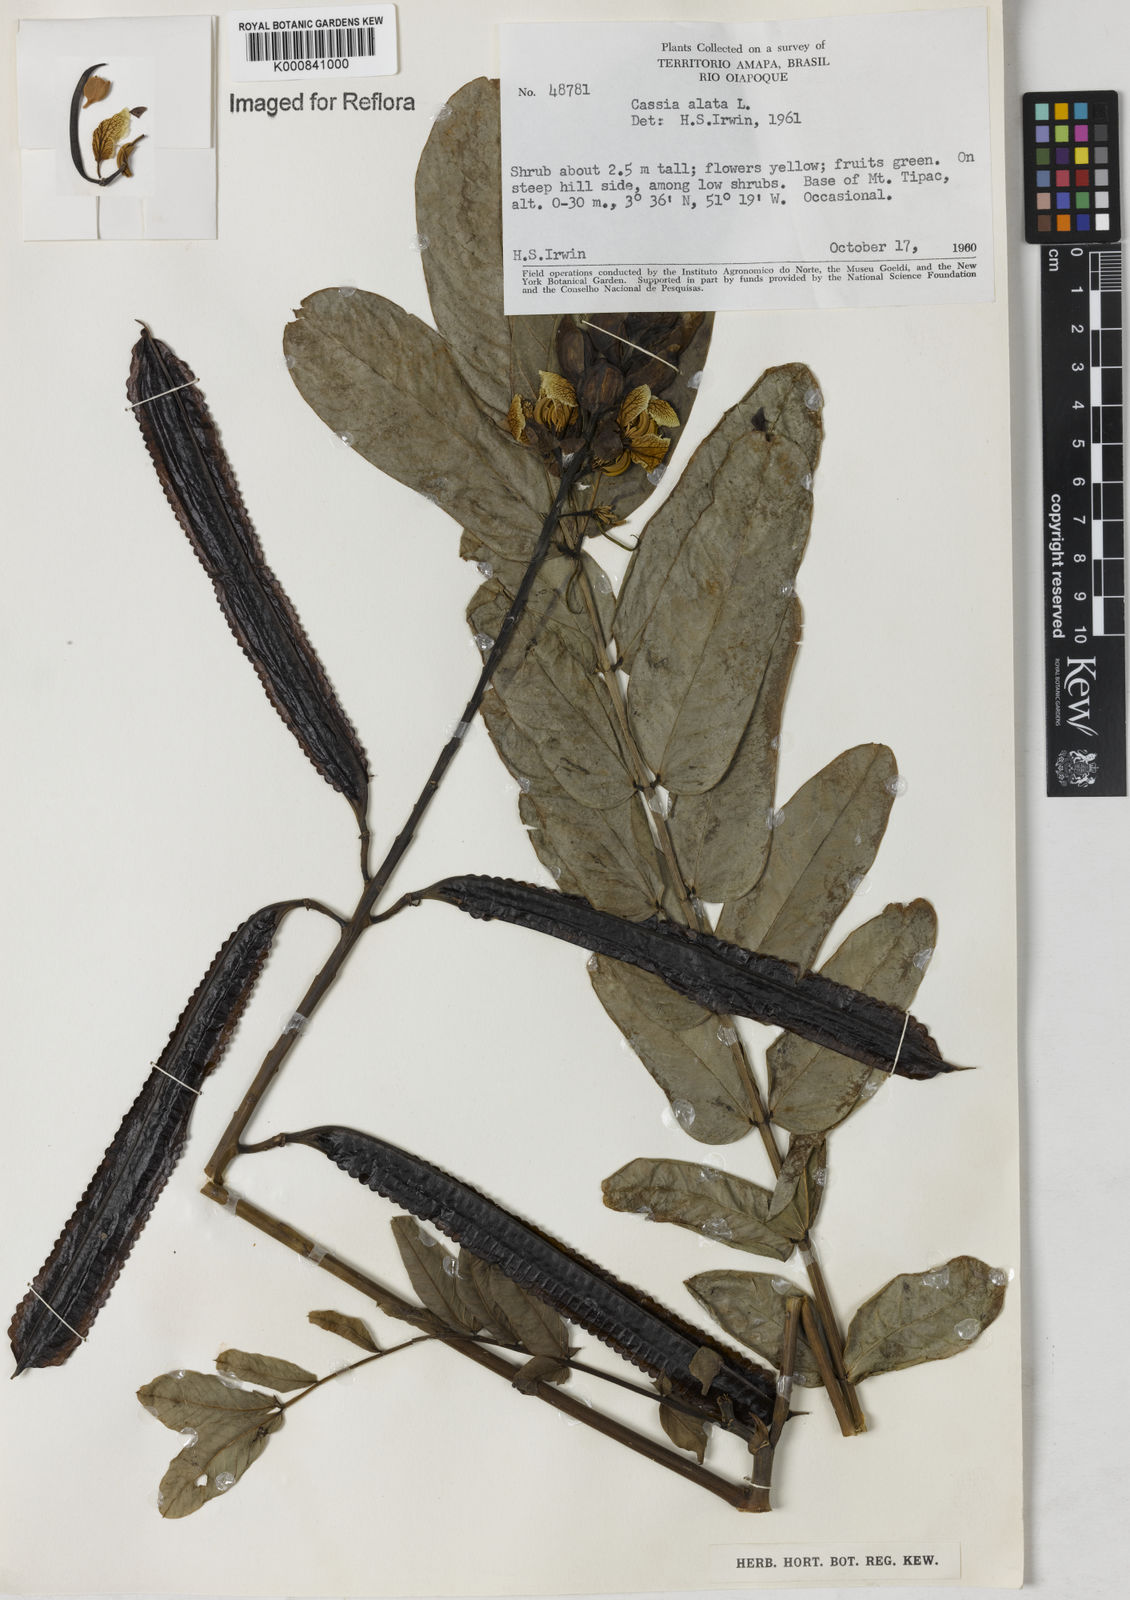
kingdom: Plantae
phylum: Tracheophyta
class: Magnoliopsida
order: Fabales
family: Fabaceae
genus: Senna
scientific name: Senna alata
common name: Emperor's candlesticks
